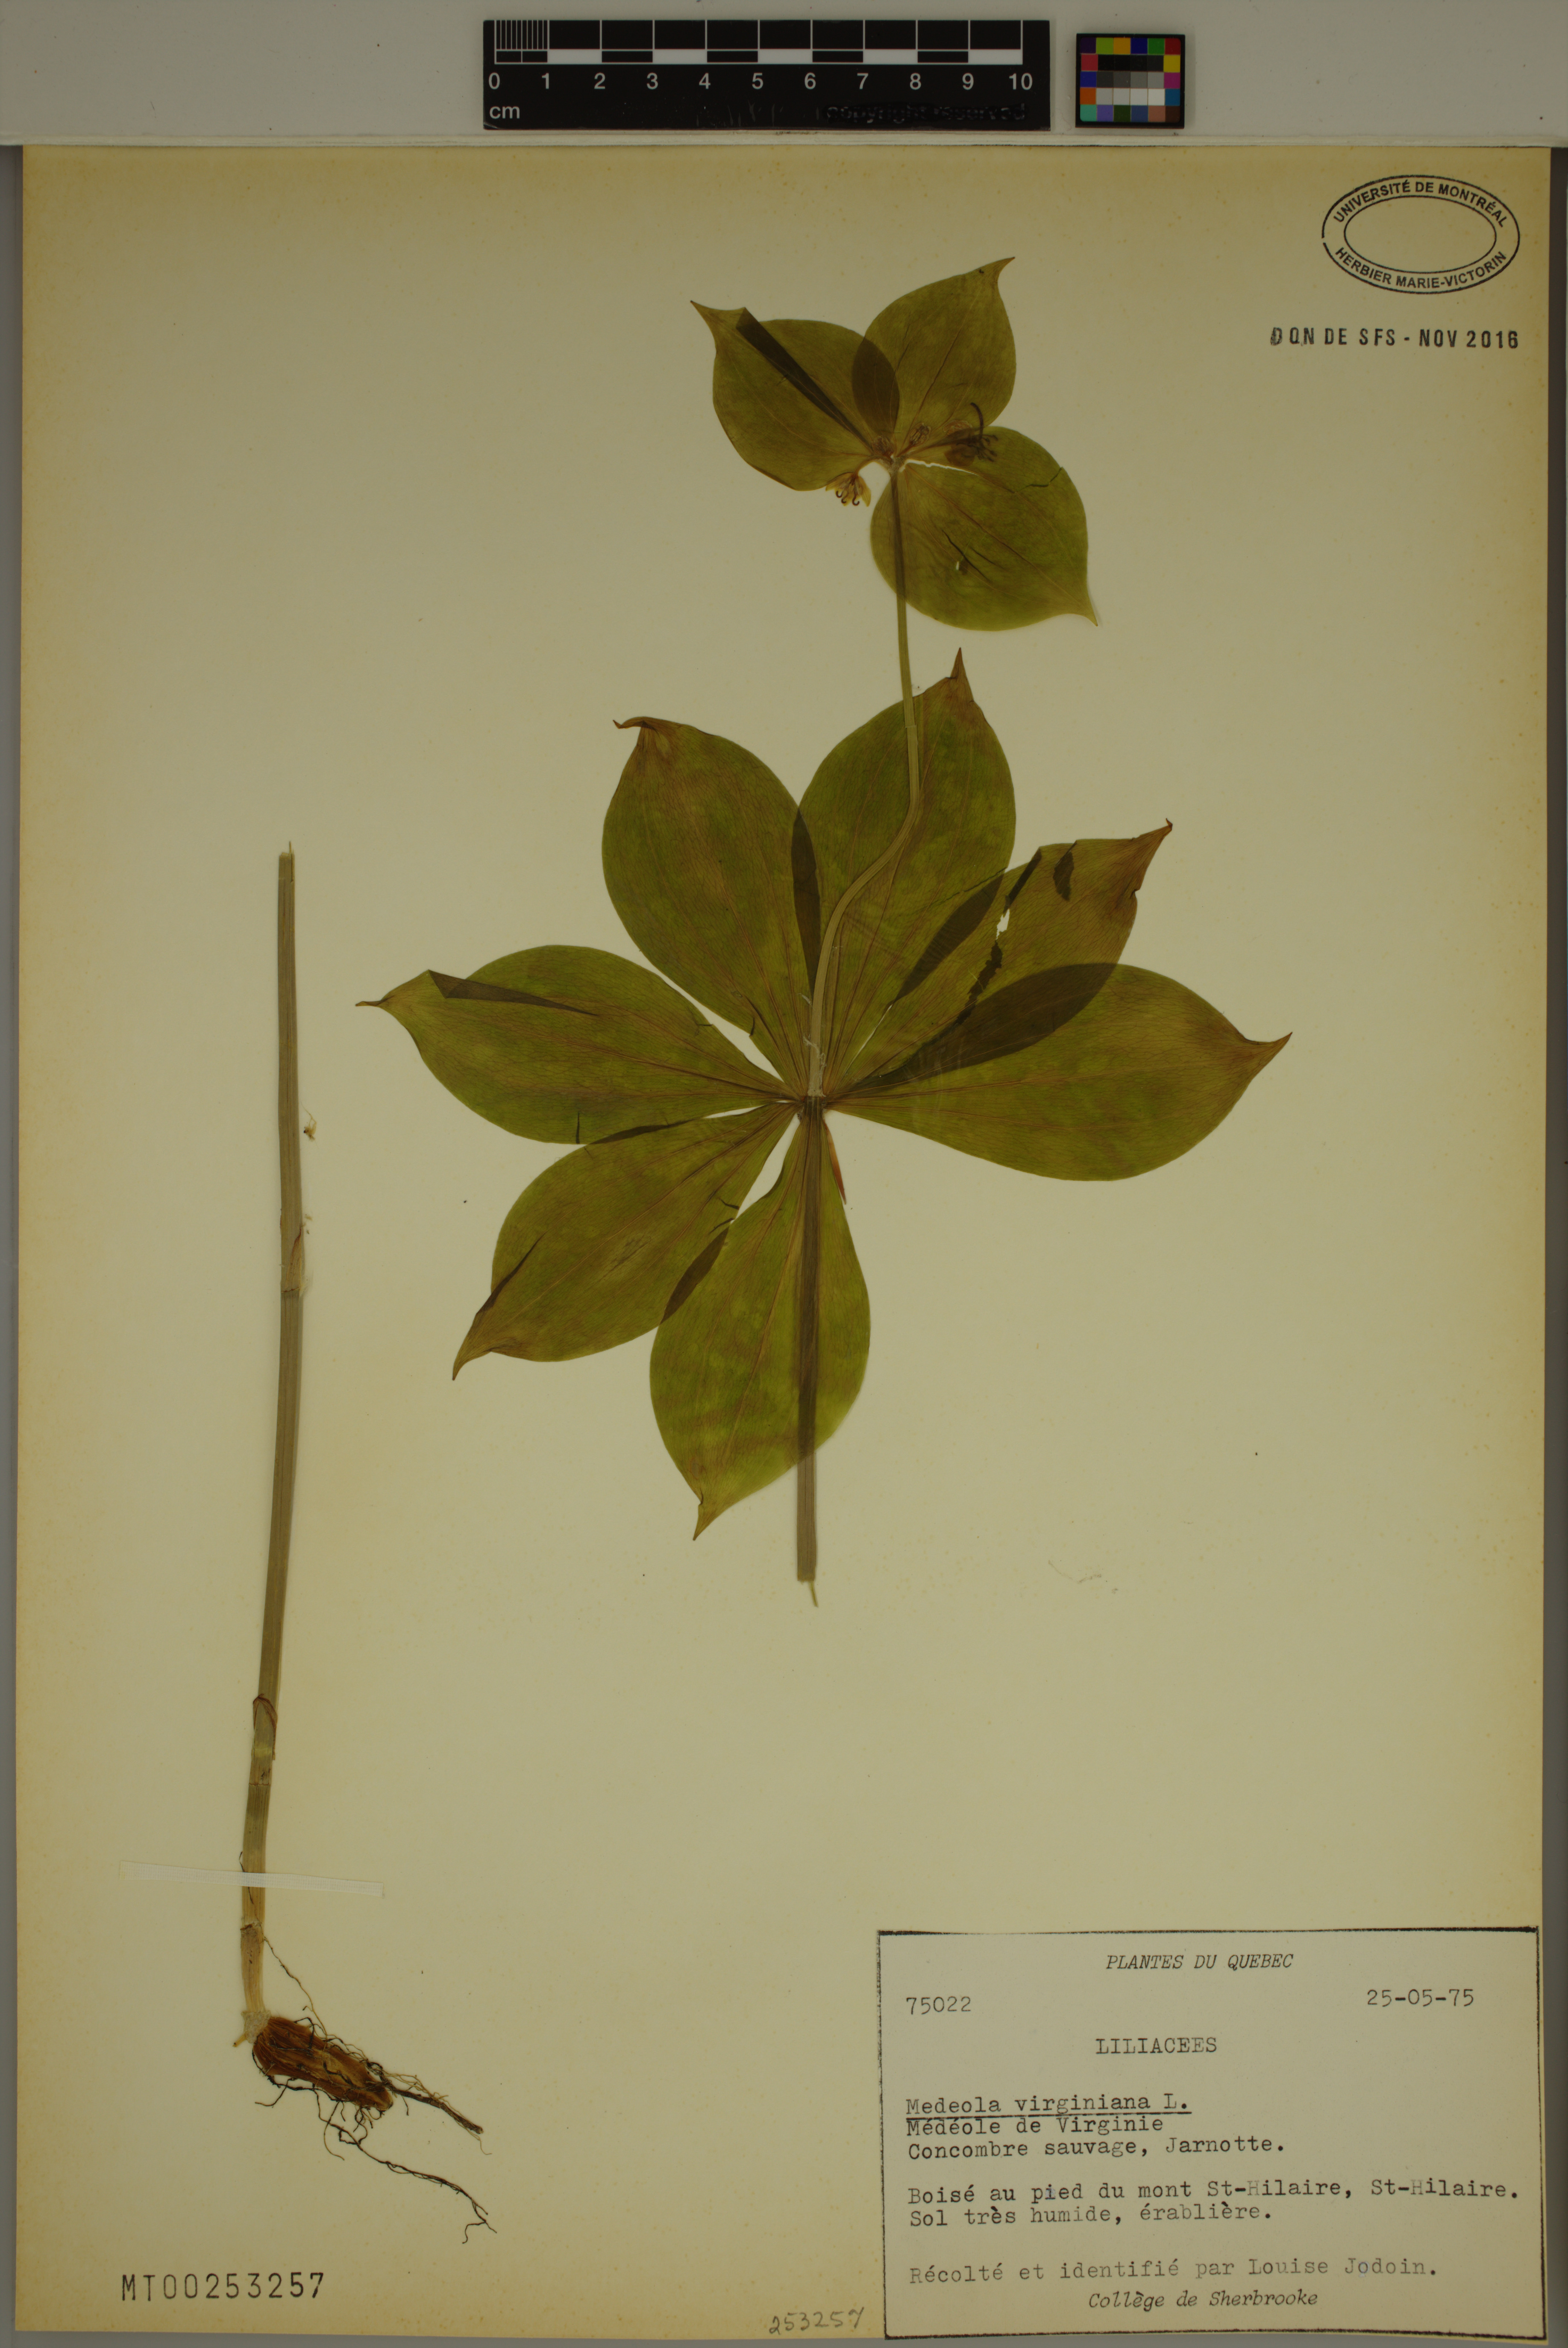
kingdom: Plantae
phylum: Tracheophyta
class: Liliopsida
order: Liliales
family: Liliaceae
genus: Medeola
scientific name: Medeola virginiana
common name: Indian cucumber-root
